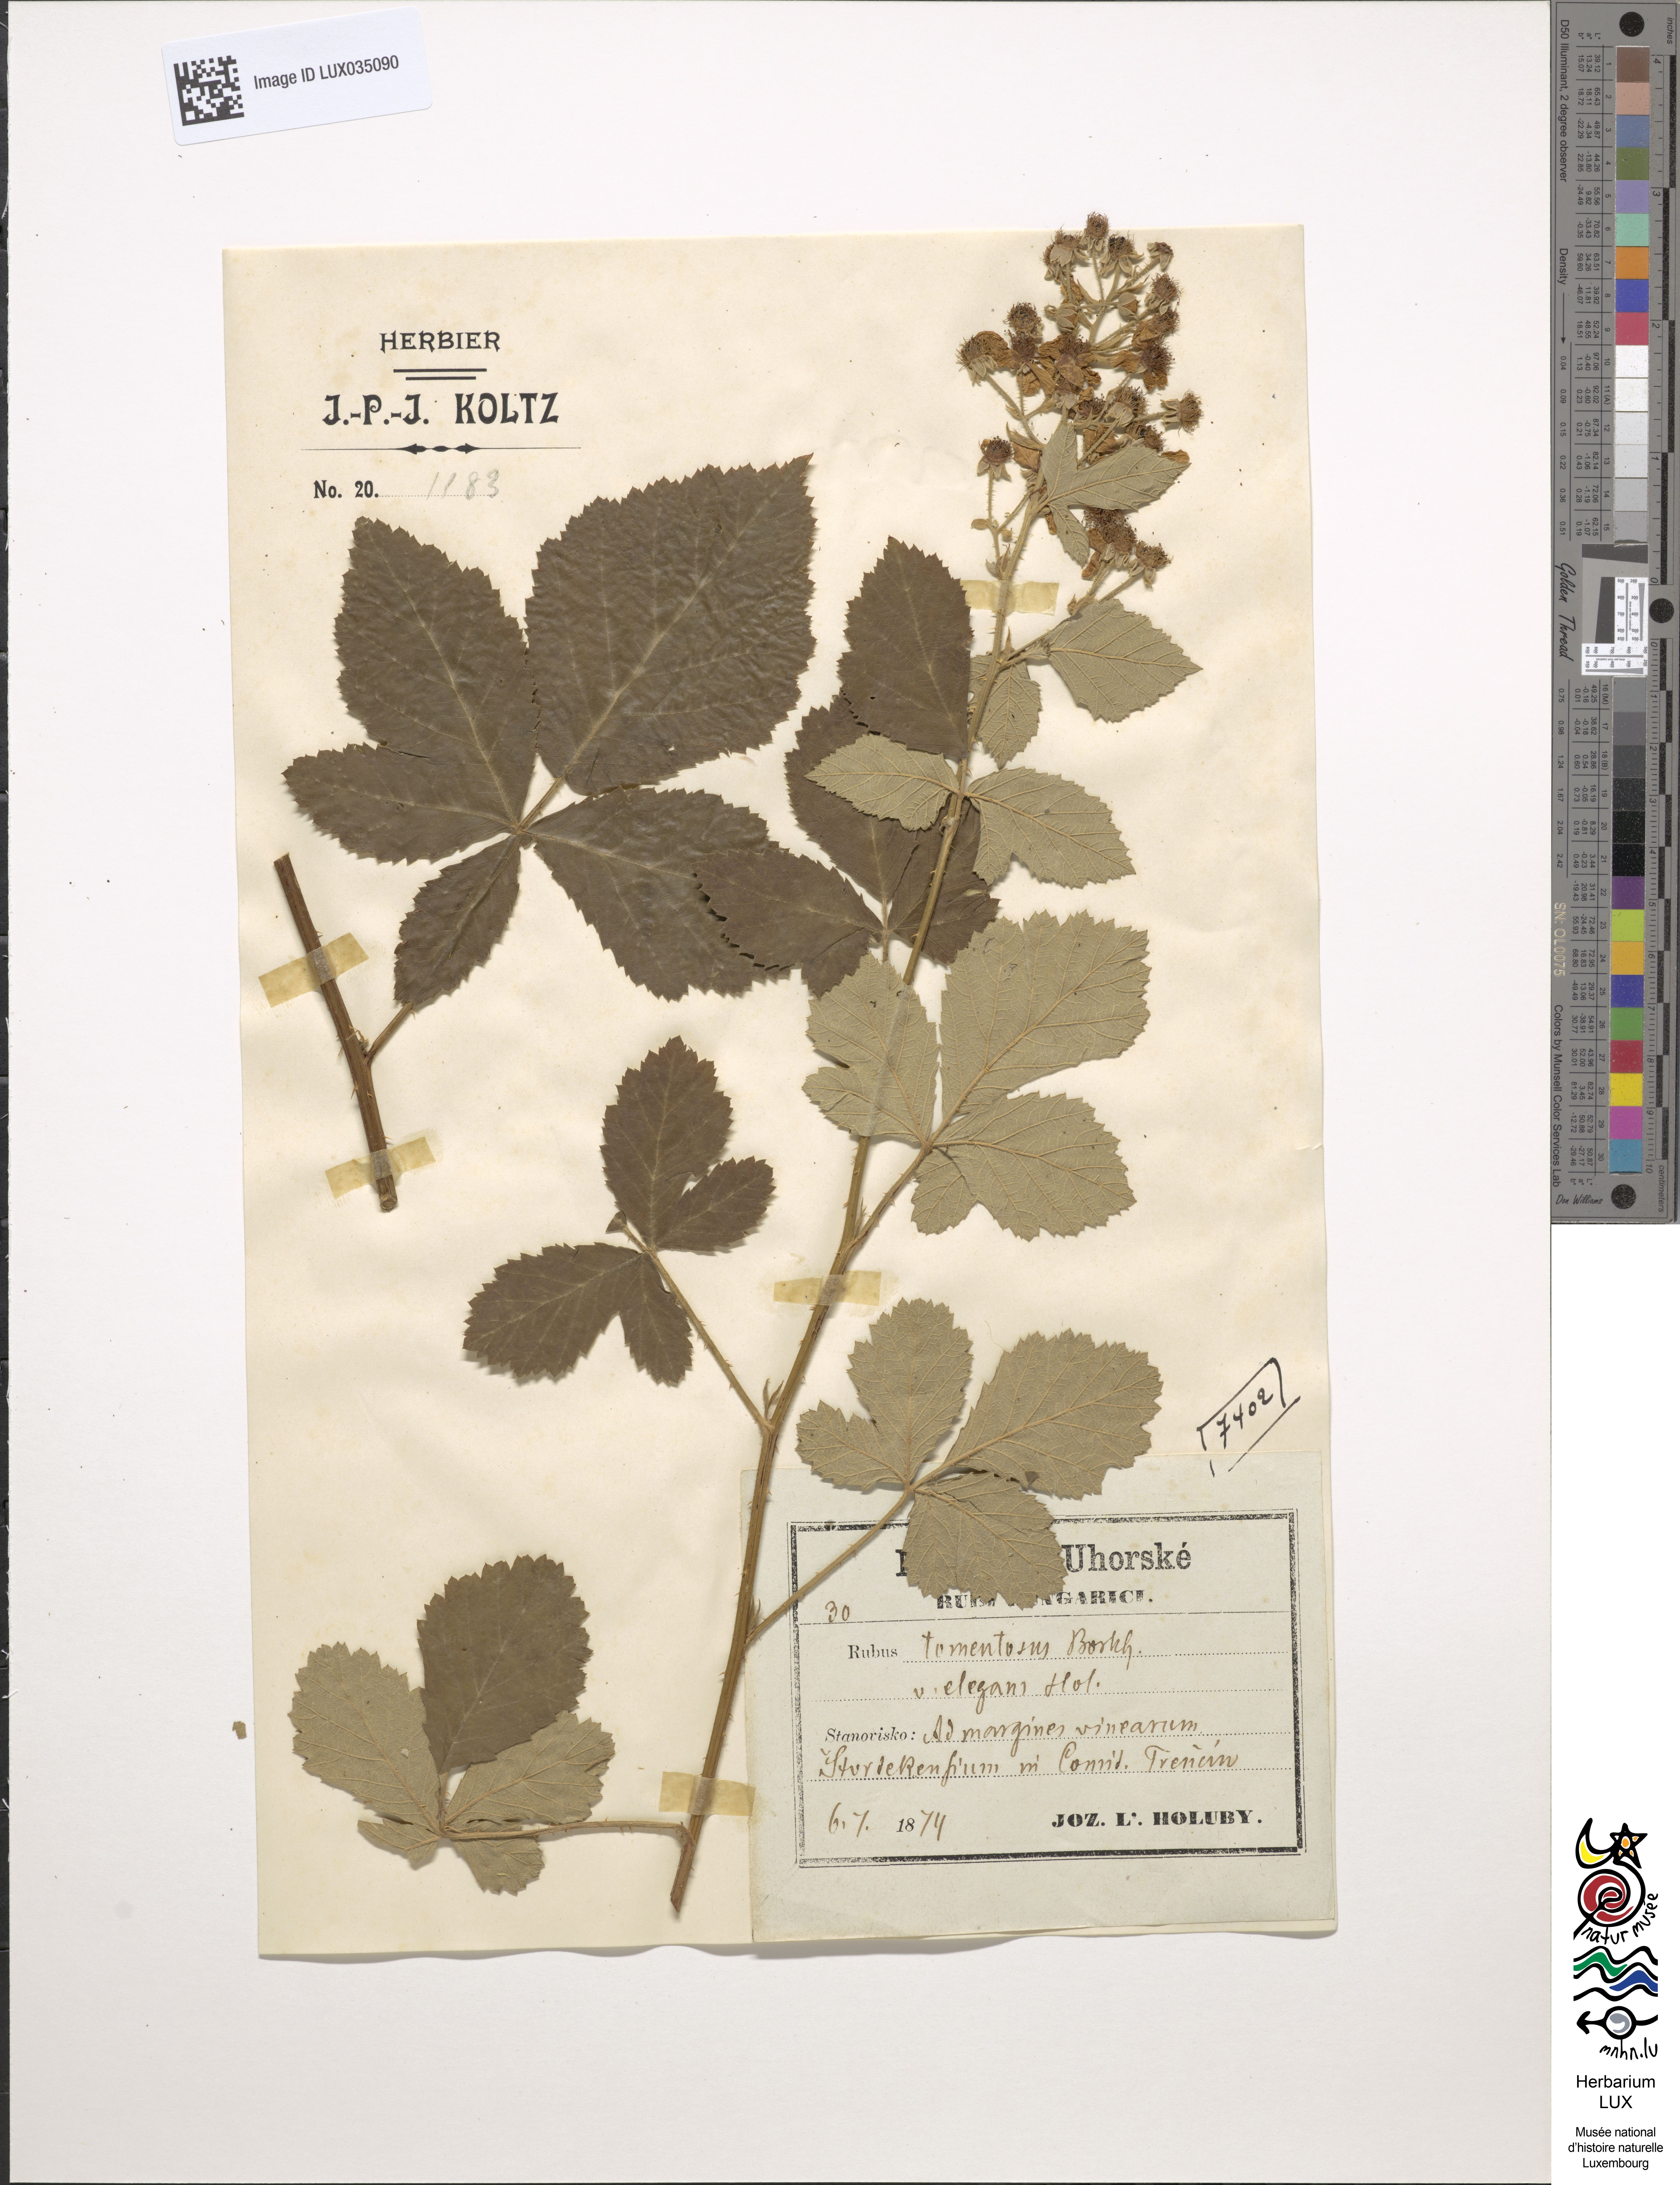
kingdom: Plantae
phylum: Tracheophyta
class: Magnoliopsida
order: Rosales
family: Rosaceae
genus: Rubus
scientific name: Rubus occidentalis
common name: Black raspberry
